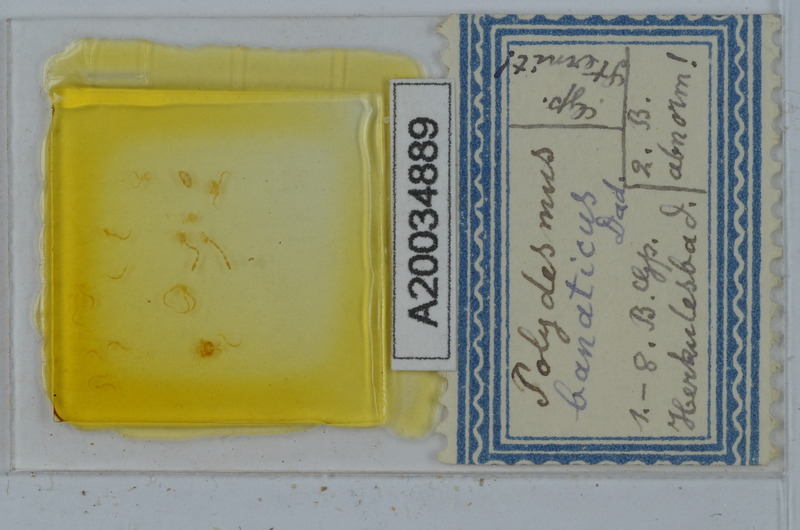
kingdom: Animalia
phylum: Arthropoda
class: Diplopoda
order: Polydesmida
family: Polydesmidae
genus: Polydesmus
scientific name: Polydesmus subscabratus
